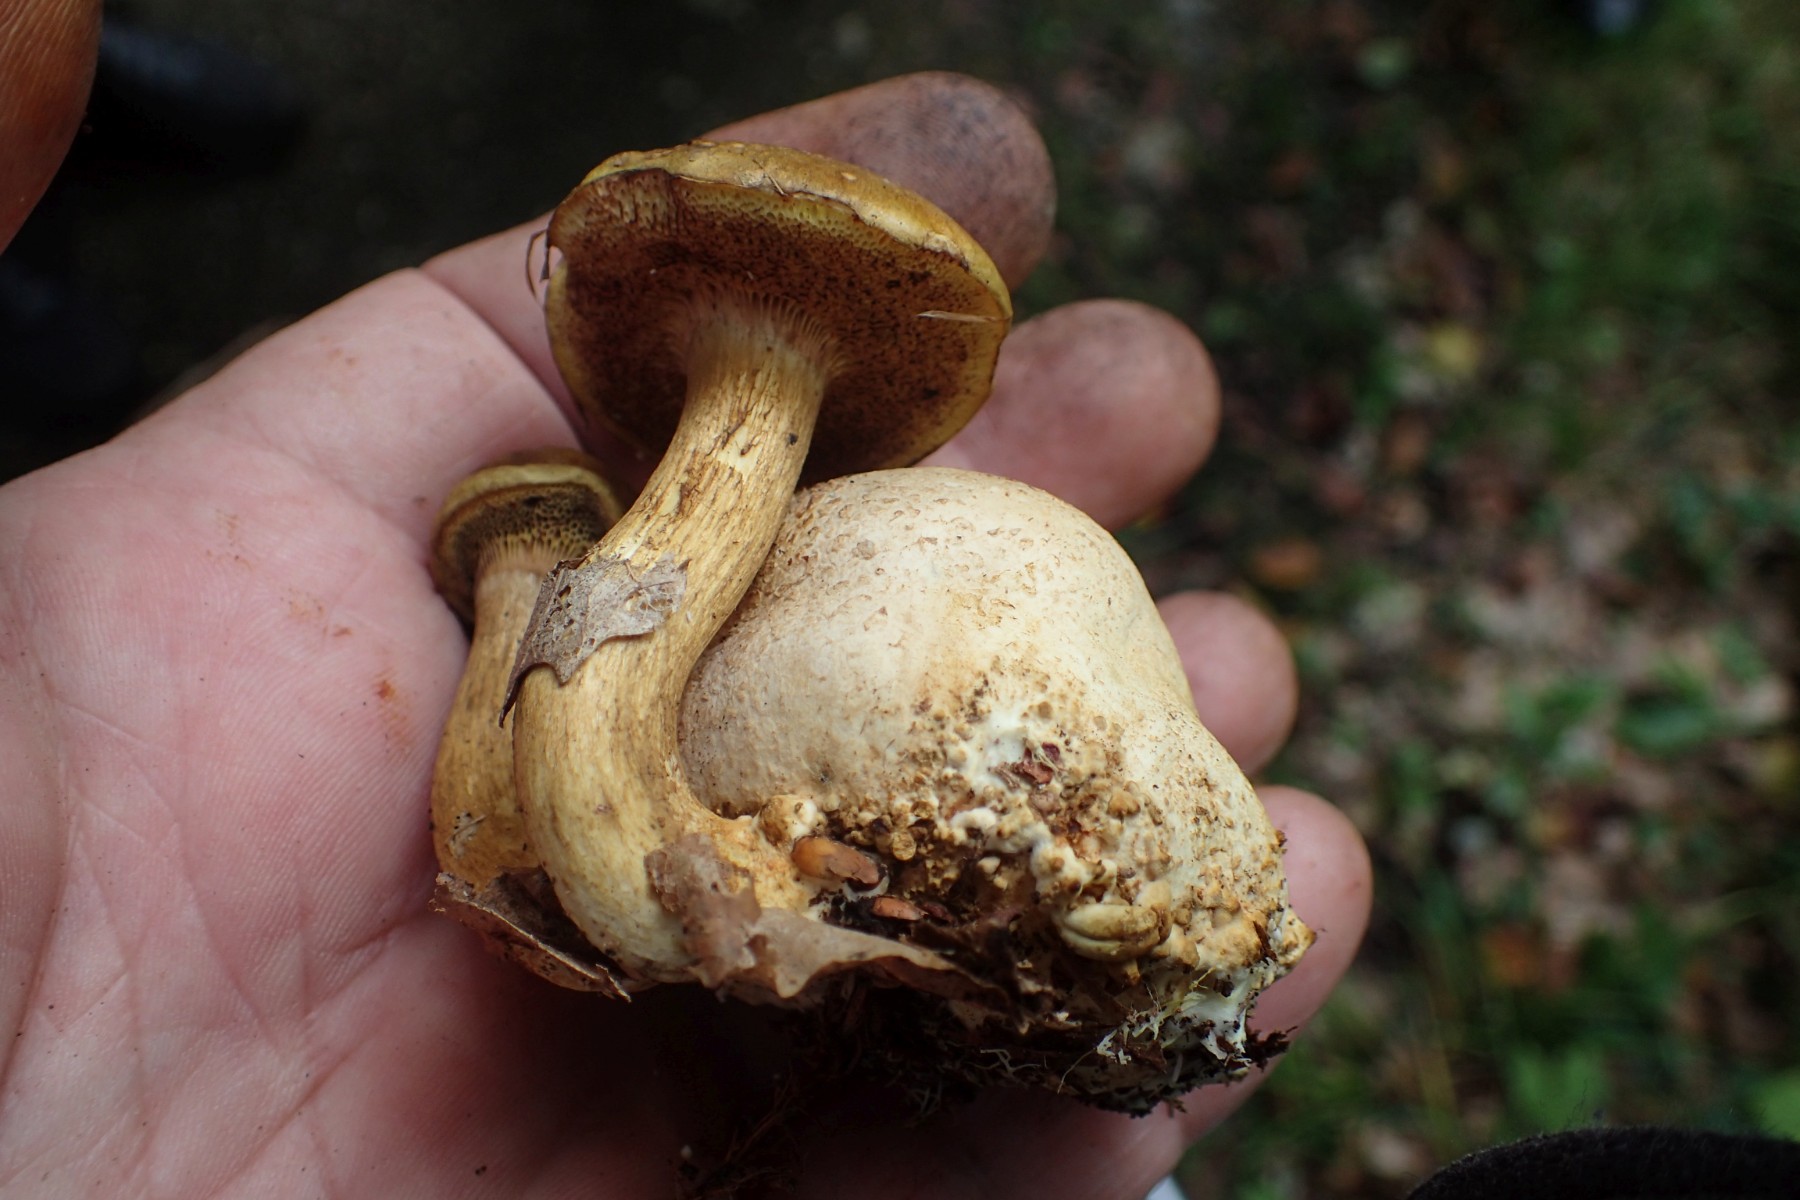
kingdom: Fungi
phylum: Basidiomycota
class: Agaricomycetes
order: Boletales
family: Boletaceae
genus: Pseudoboletus
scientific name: Pseudoboletus parasiticus
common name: snyltende rørhat
